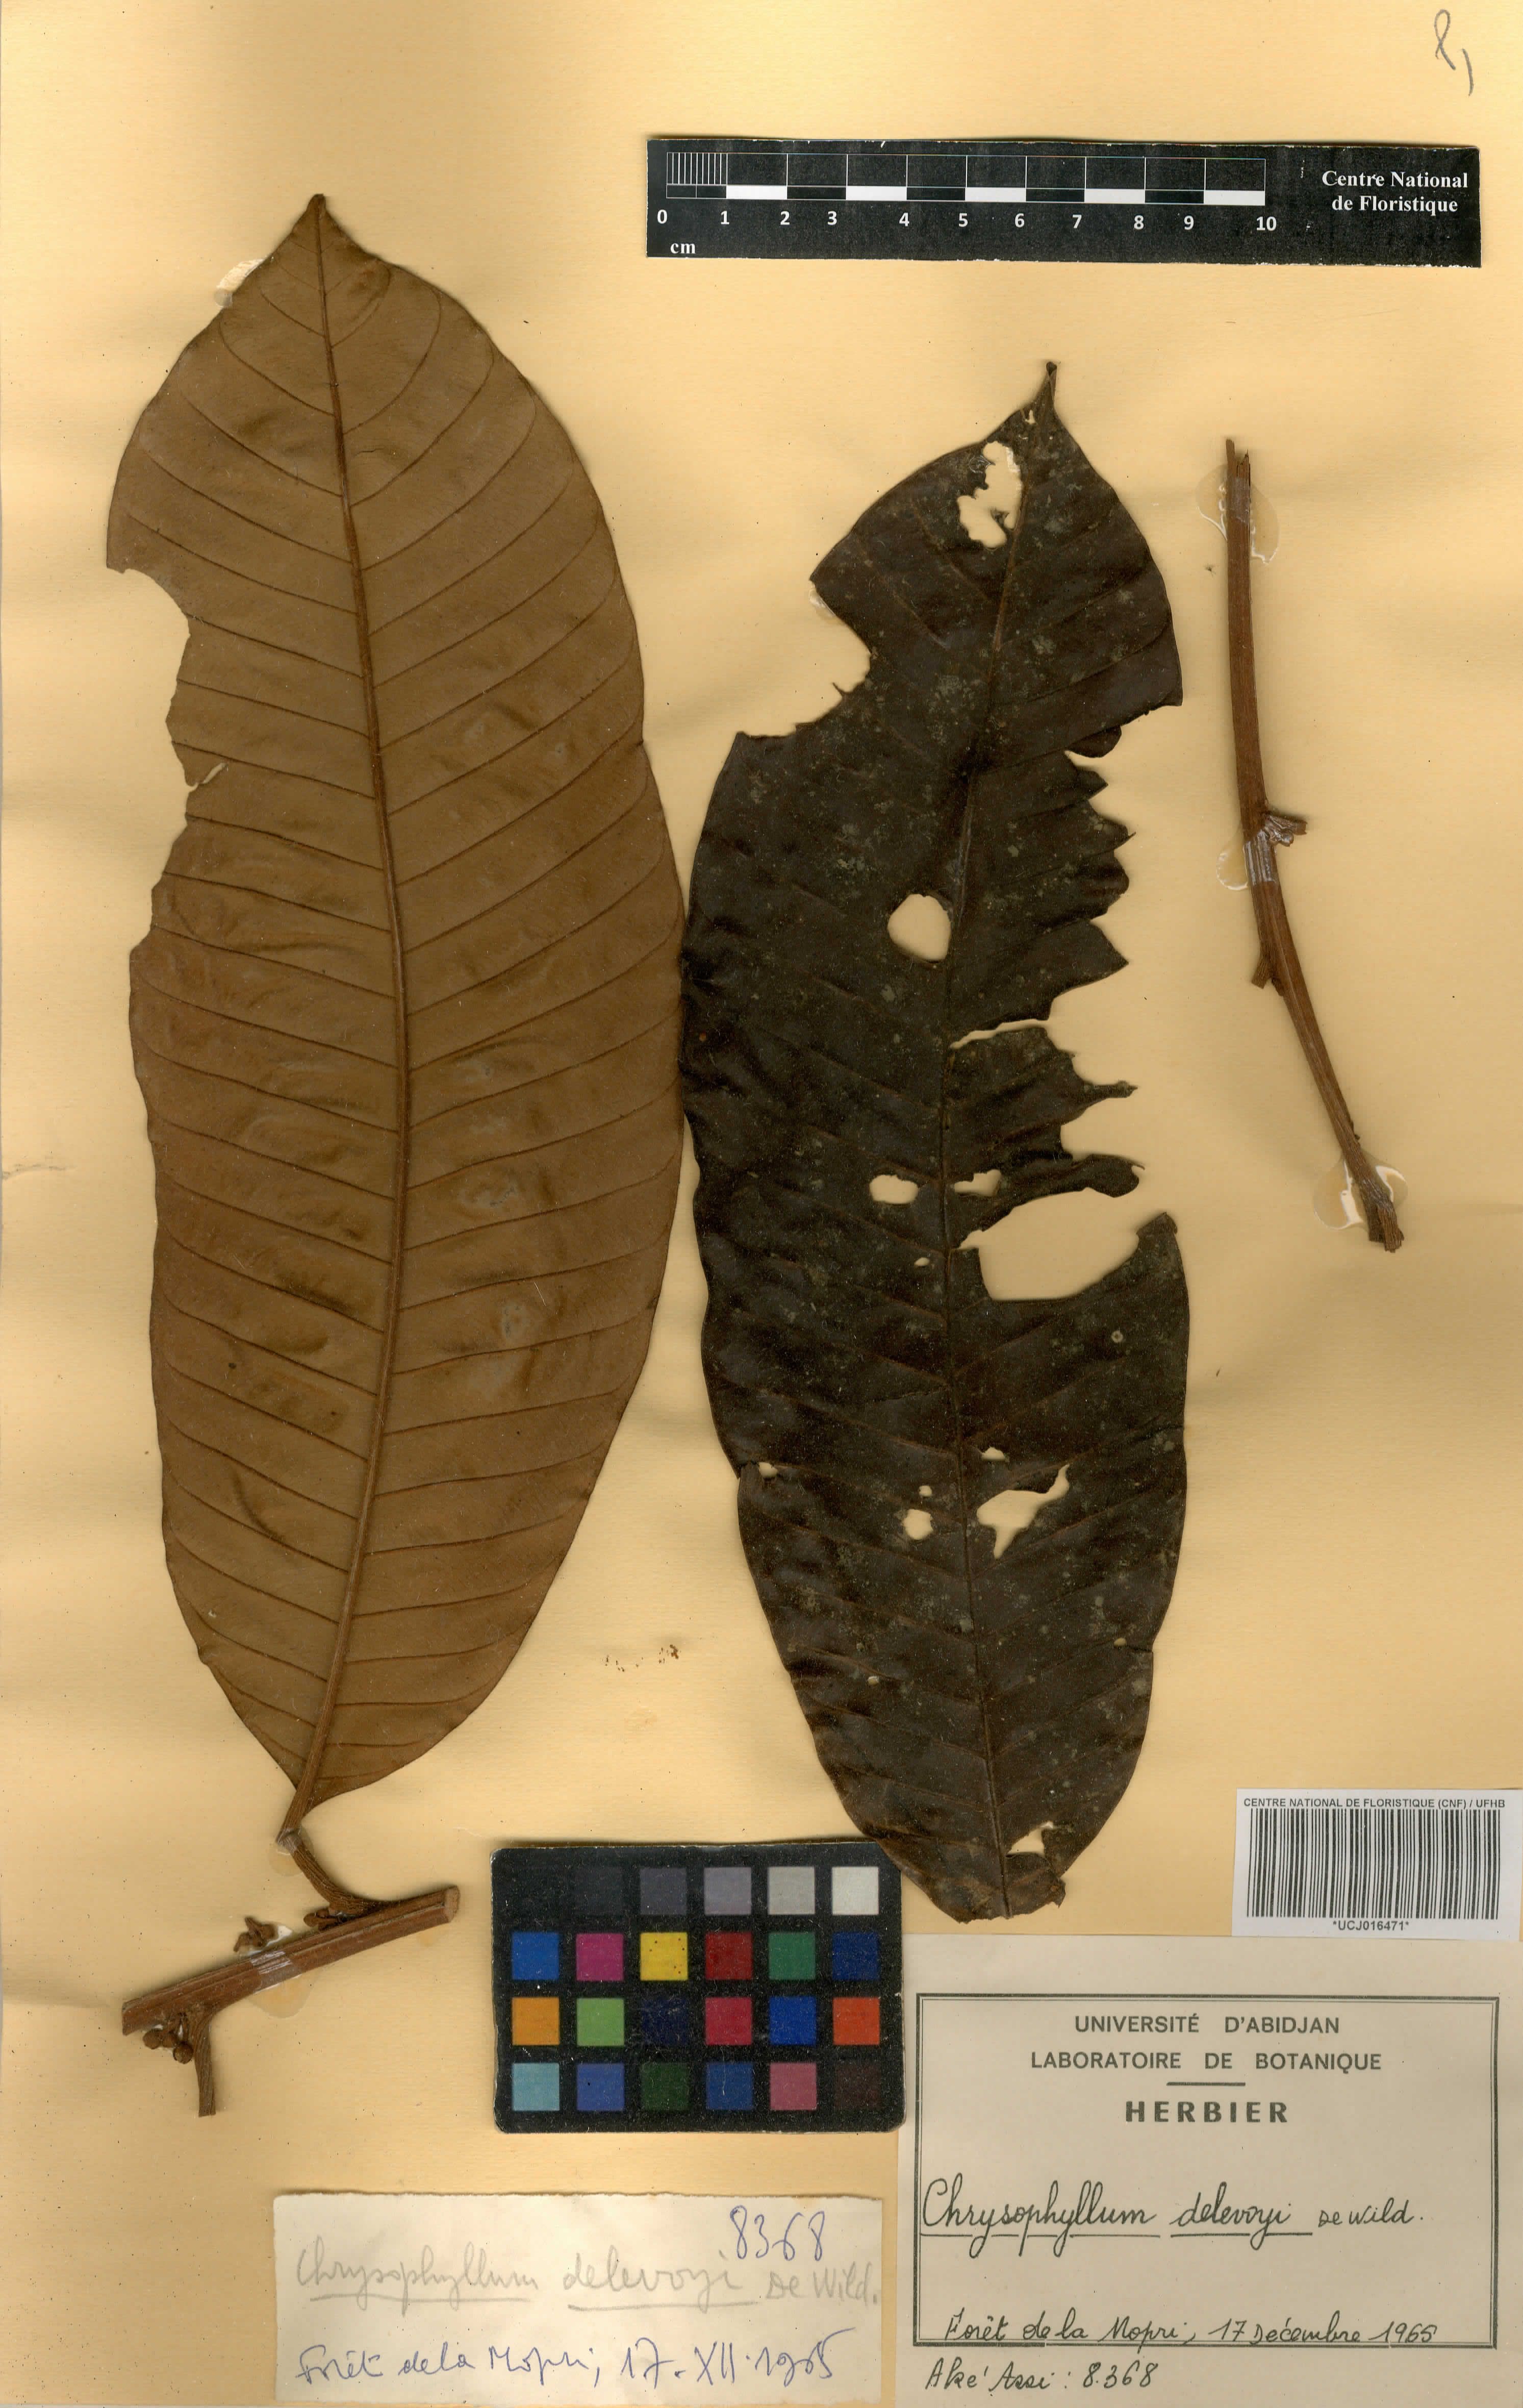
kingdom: Plantae
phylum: Tracheophyta
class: Magnoliopsida
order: Ericales
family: Sapotaceae
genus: Gambeya
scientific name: Gambeya africana
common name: African star apple
